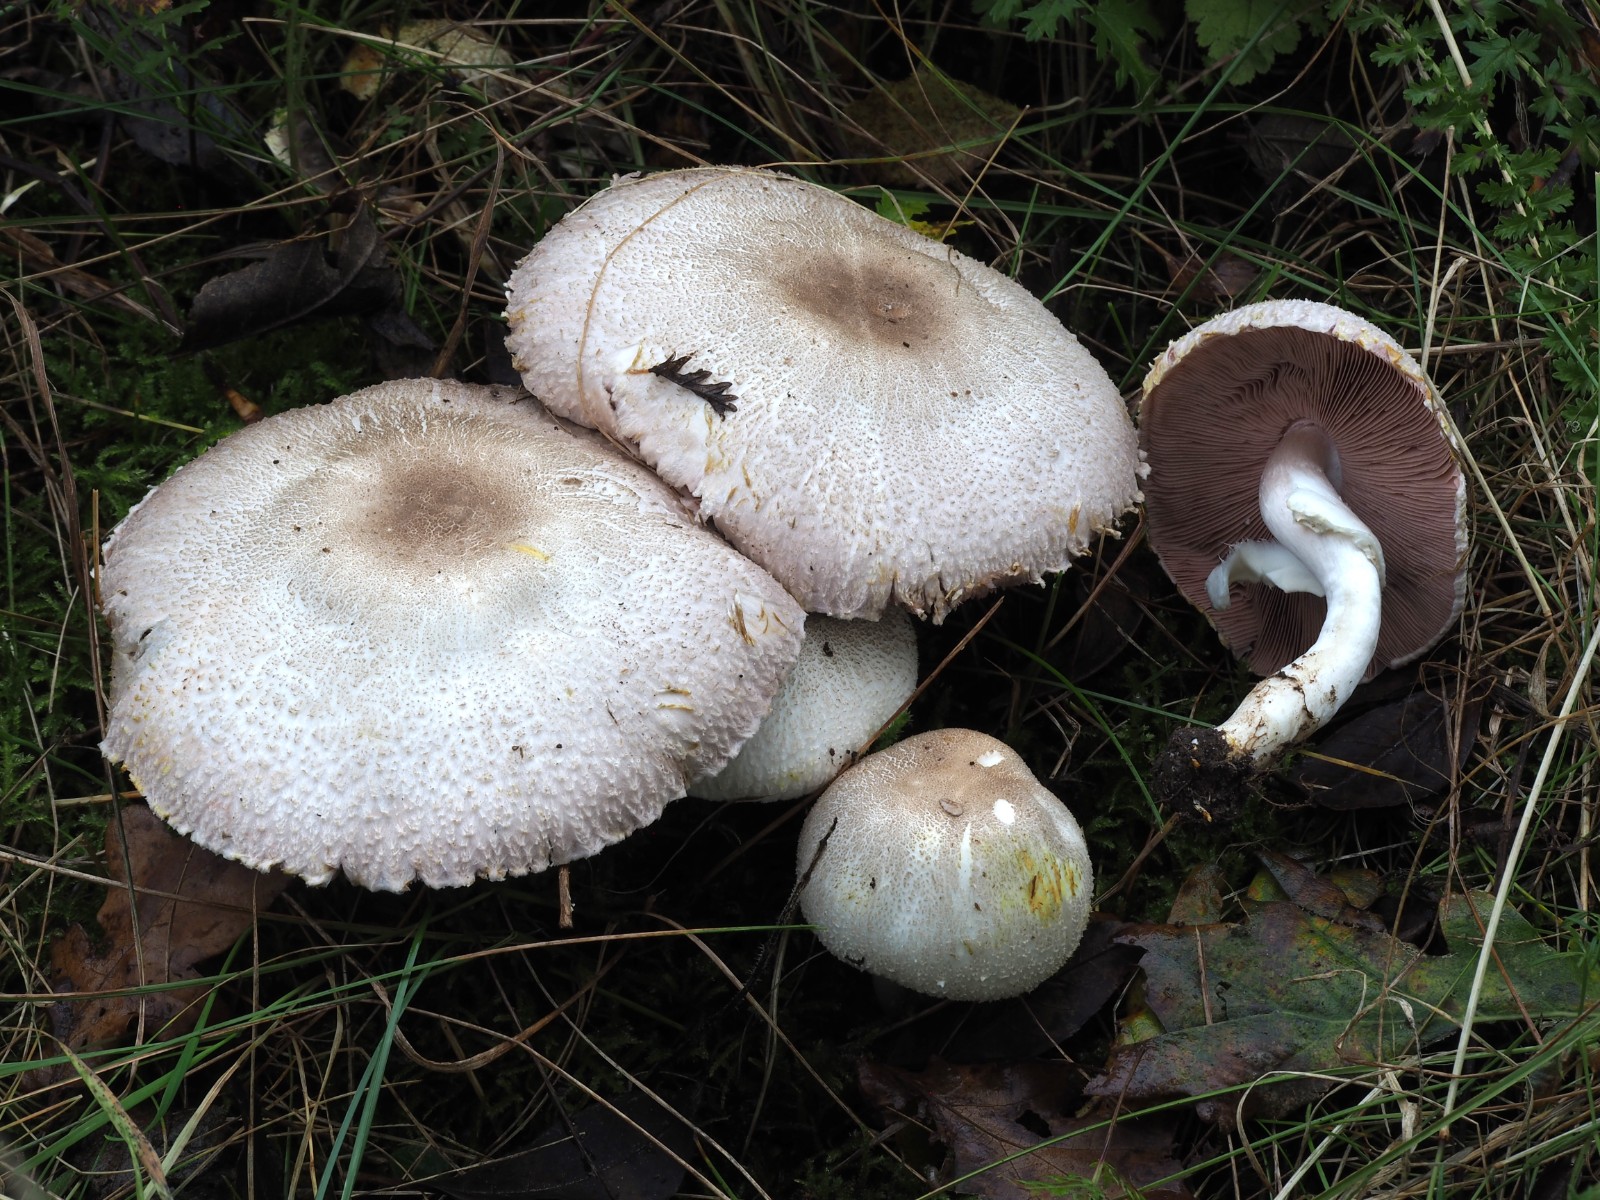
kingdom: Fungi
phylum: Basidiomycota
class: Agaricomycetes
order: Agaricales
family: Agaricaceae
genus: Agaricus
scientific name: Agaricus
